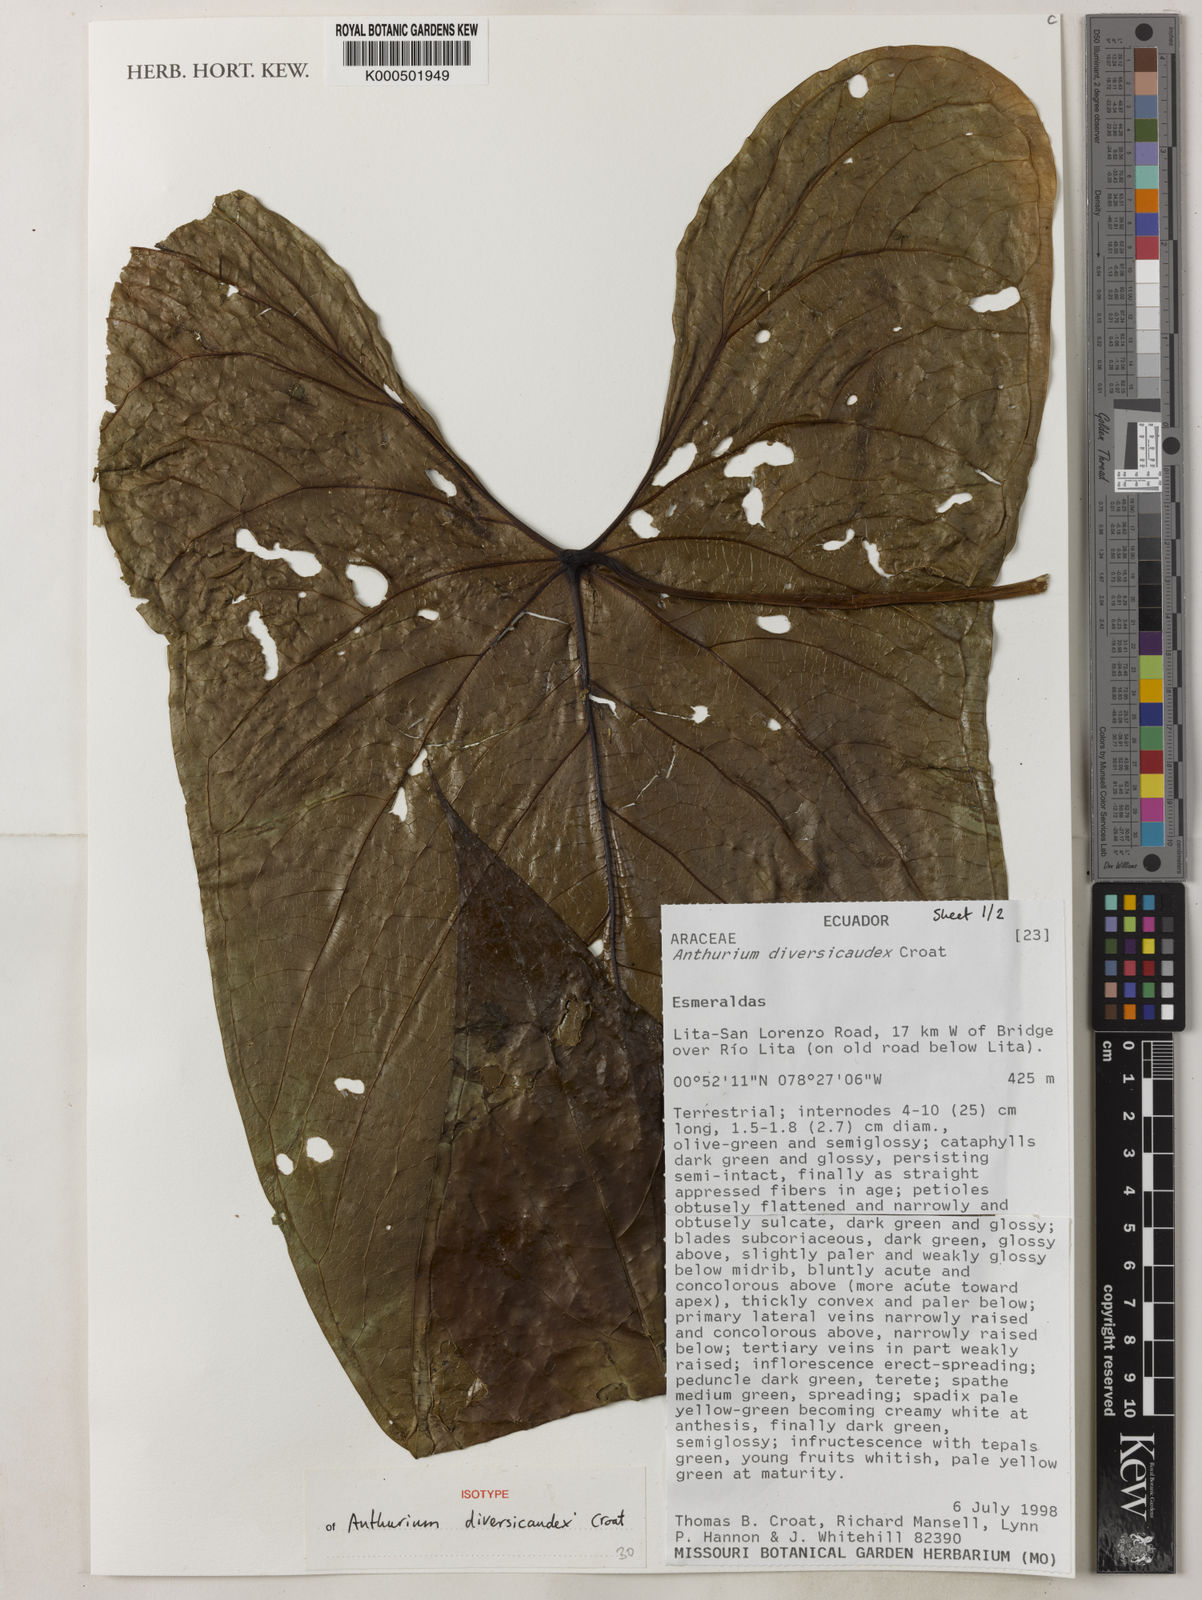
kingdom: Plantae
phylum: Tracheophyta
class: Liliopsida
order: Alismatales
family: Araceae
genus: Anthurium
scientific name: Anthurium diversicaudex
